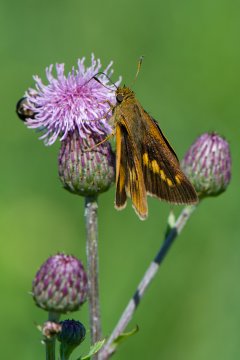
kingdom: Animalia
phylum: Arthropoda
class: Insecta
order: Lepidoptera
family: Hesperiidae
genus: Euphyes
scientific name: Euphyes dion
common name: Dion Skipper
